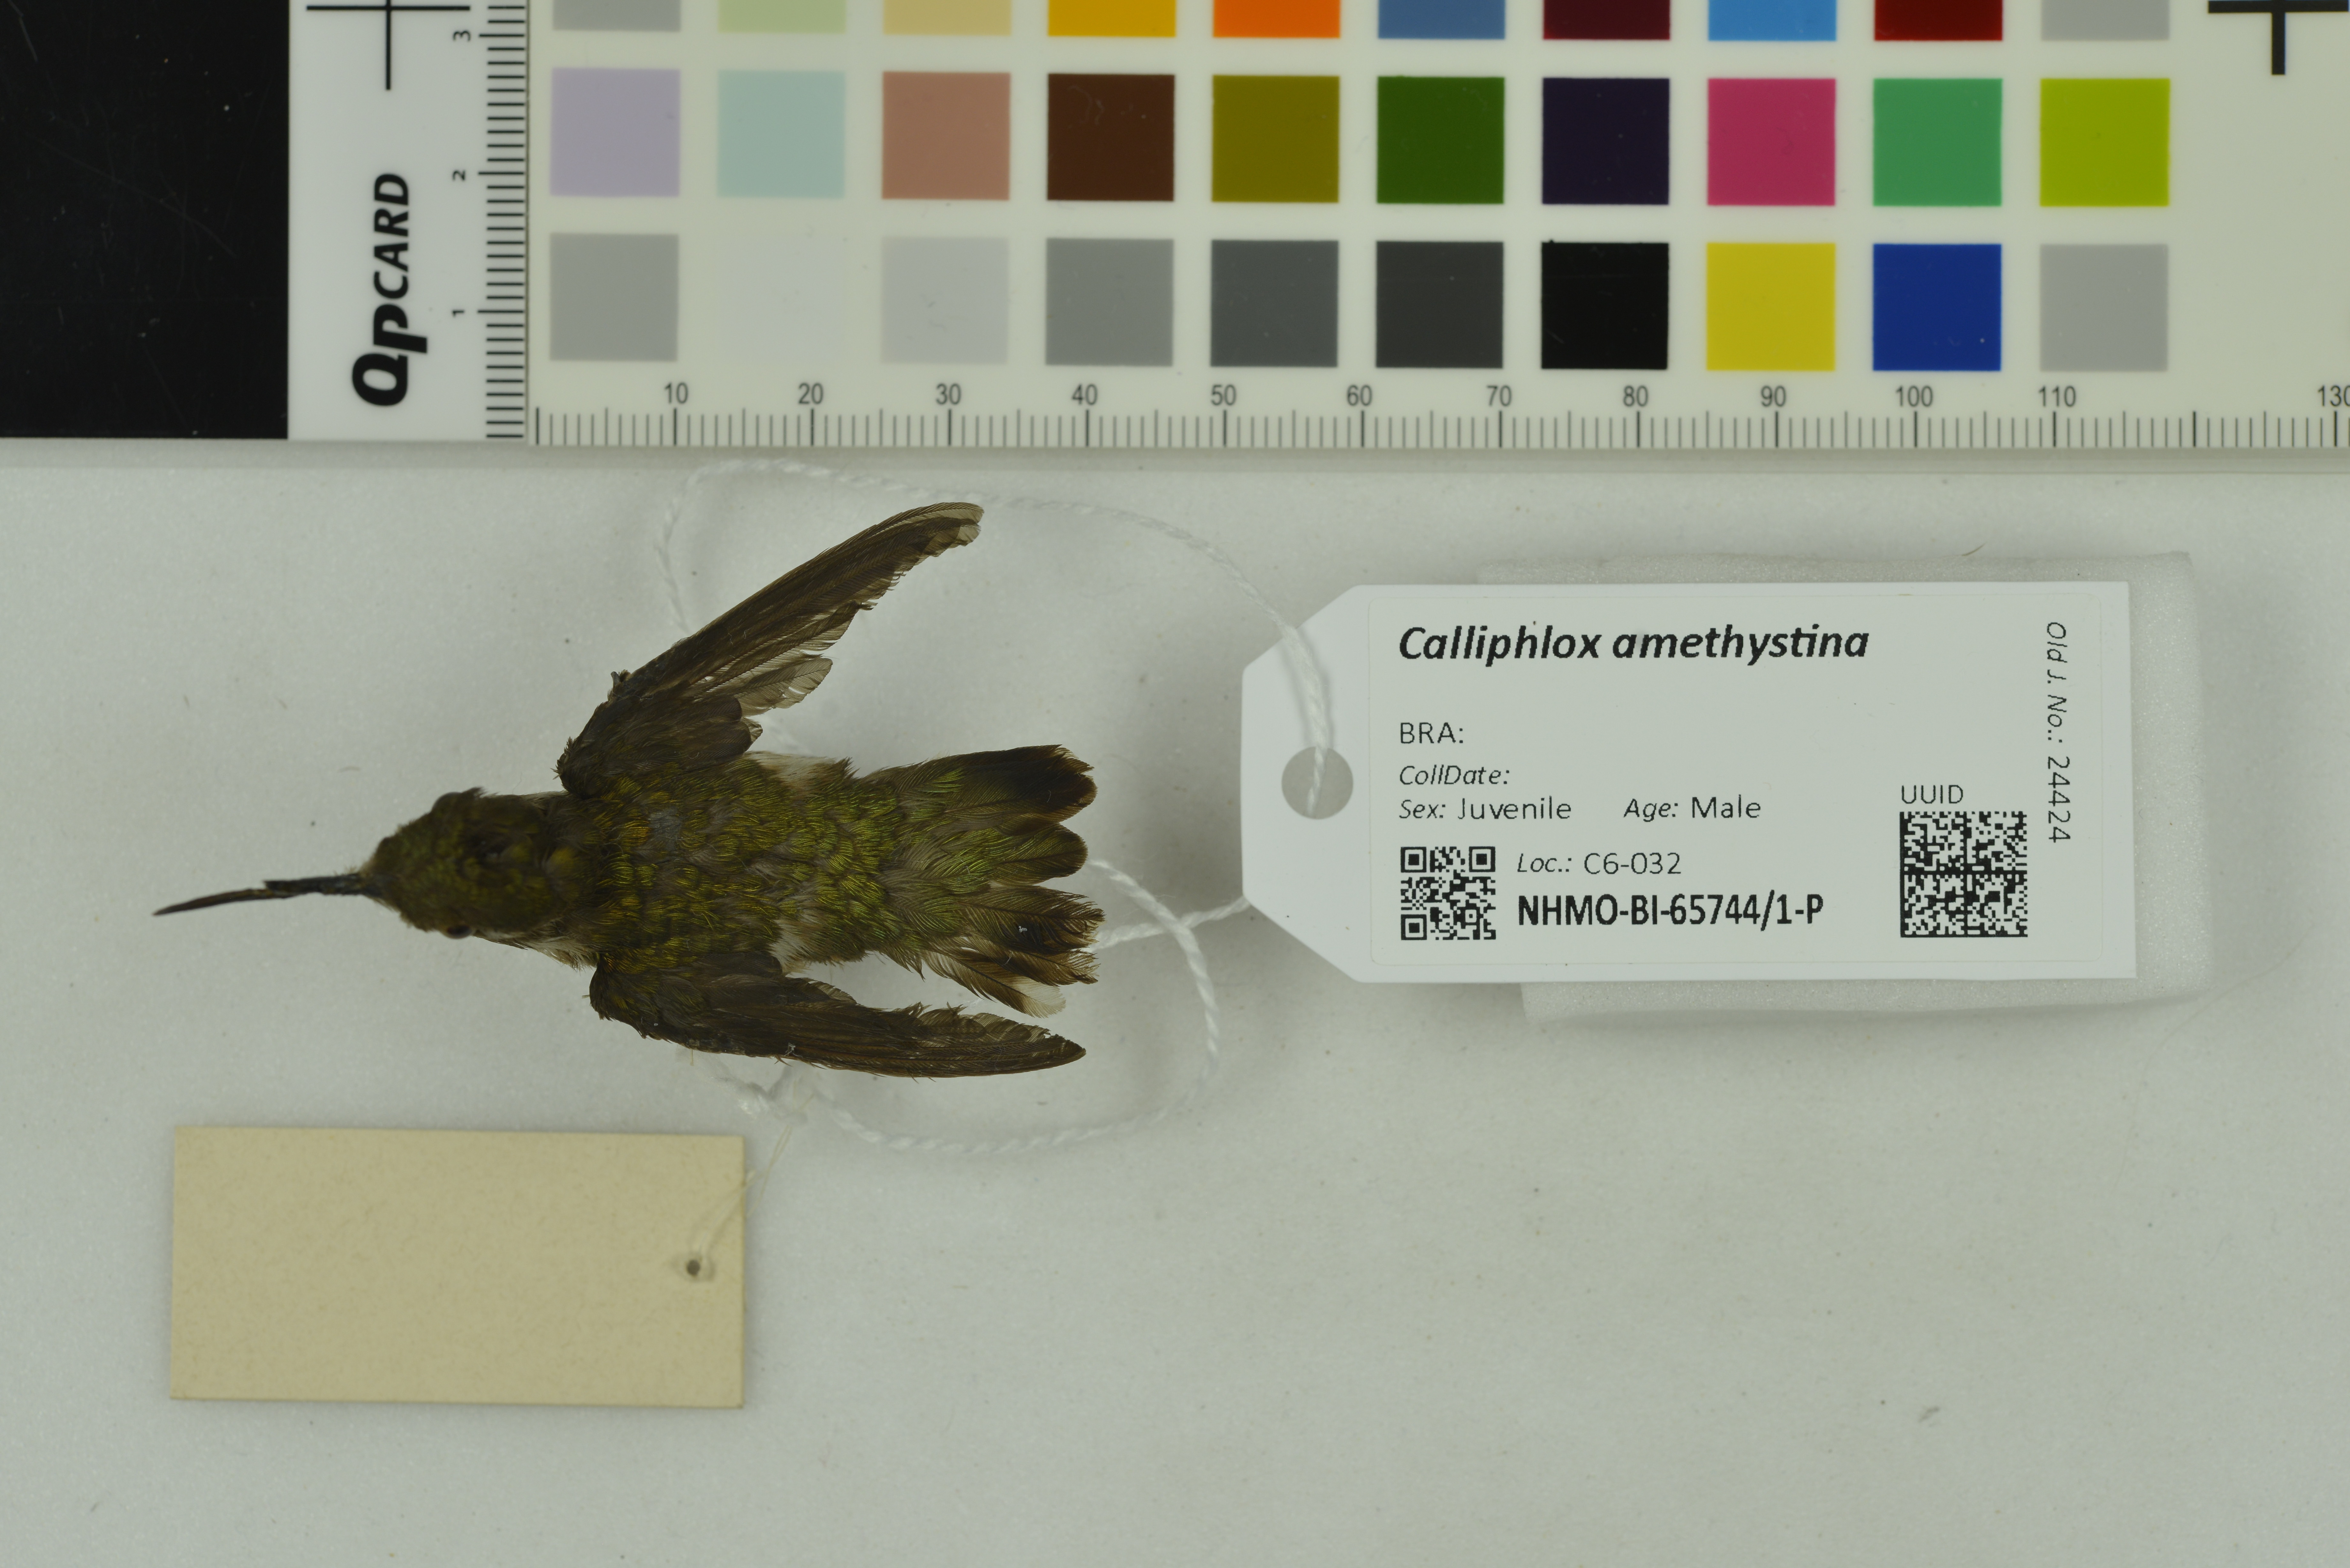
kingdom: Animalia
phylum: Chordata
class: Aves
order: Apodiformes
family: Trochilidae
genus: Calliphlox
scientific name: Calliphlox amethystina
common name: Amethyst woodstar
